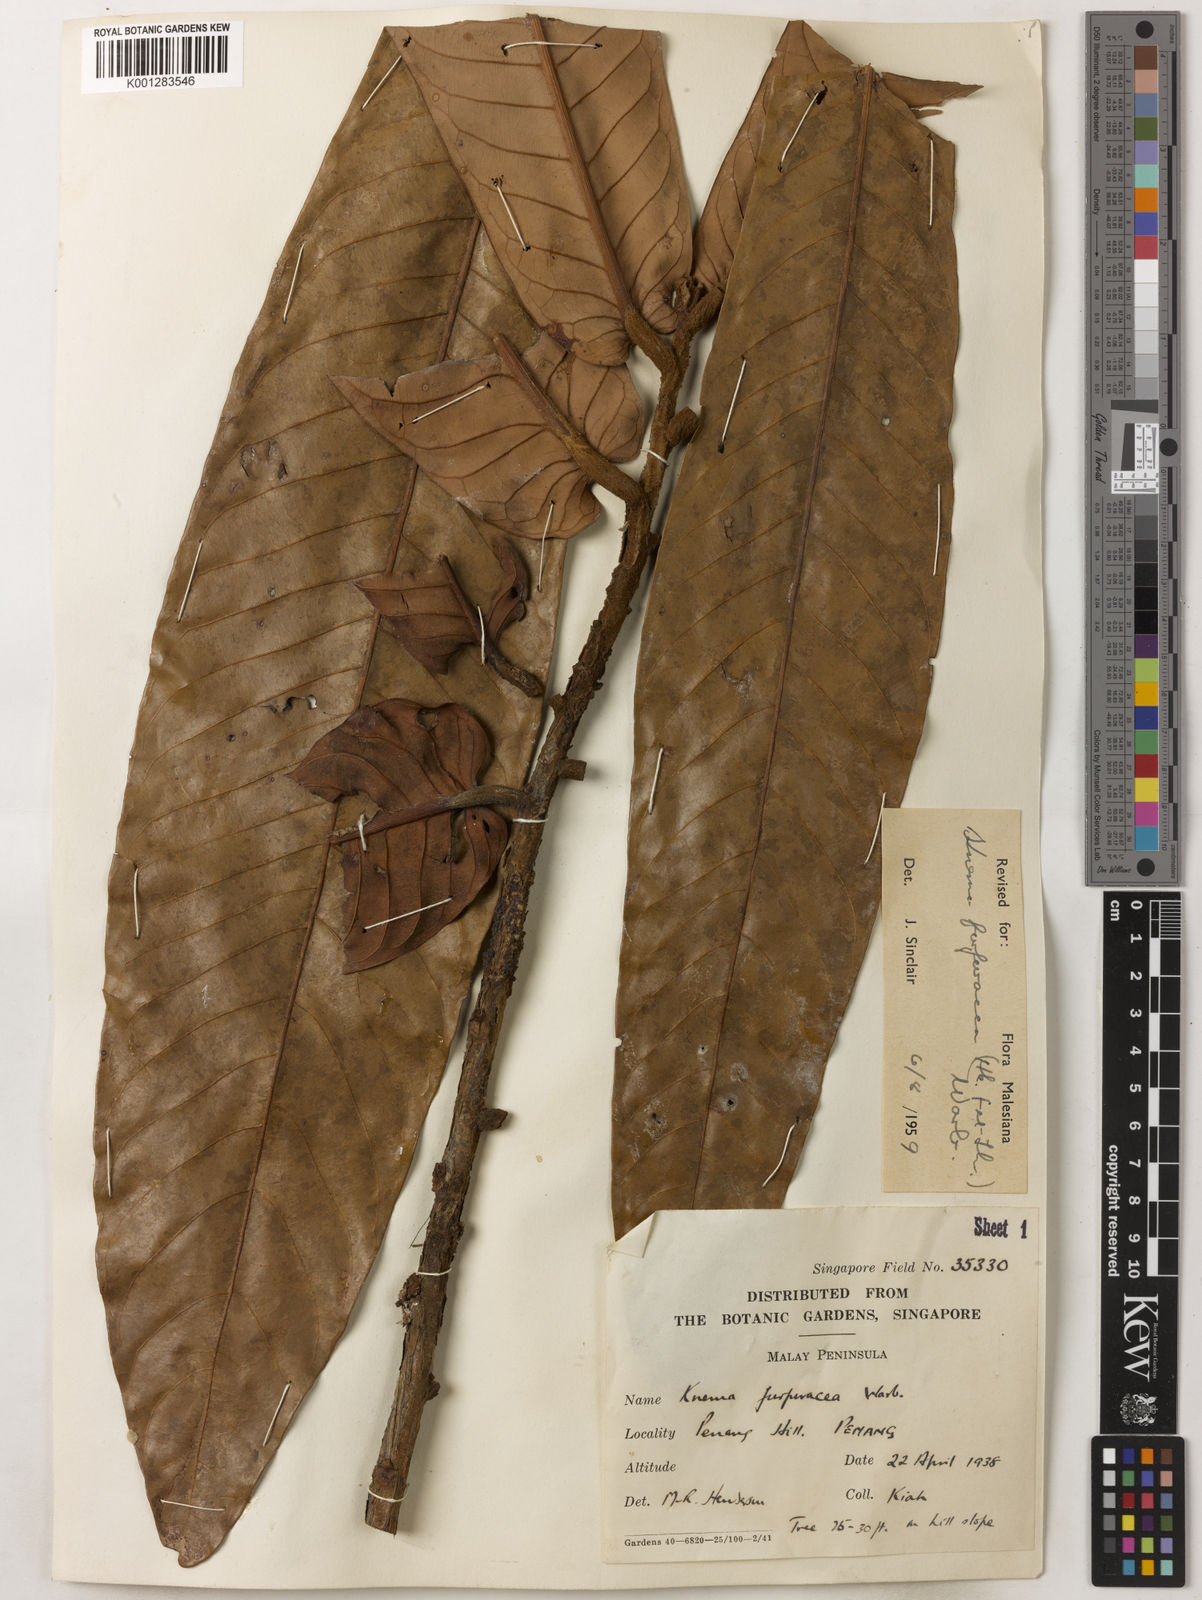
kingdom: Plantae
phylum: Tracheophyta
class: Magnoliopsida
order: Magnoliales
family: Myristicaceae
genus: Knema
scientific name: Knema furfuracea
